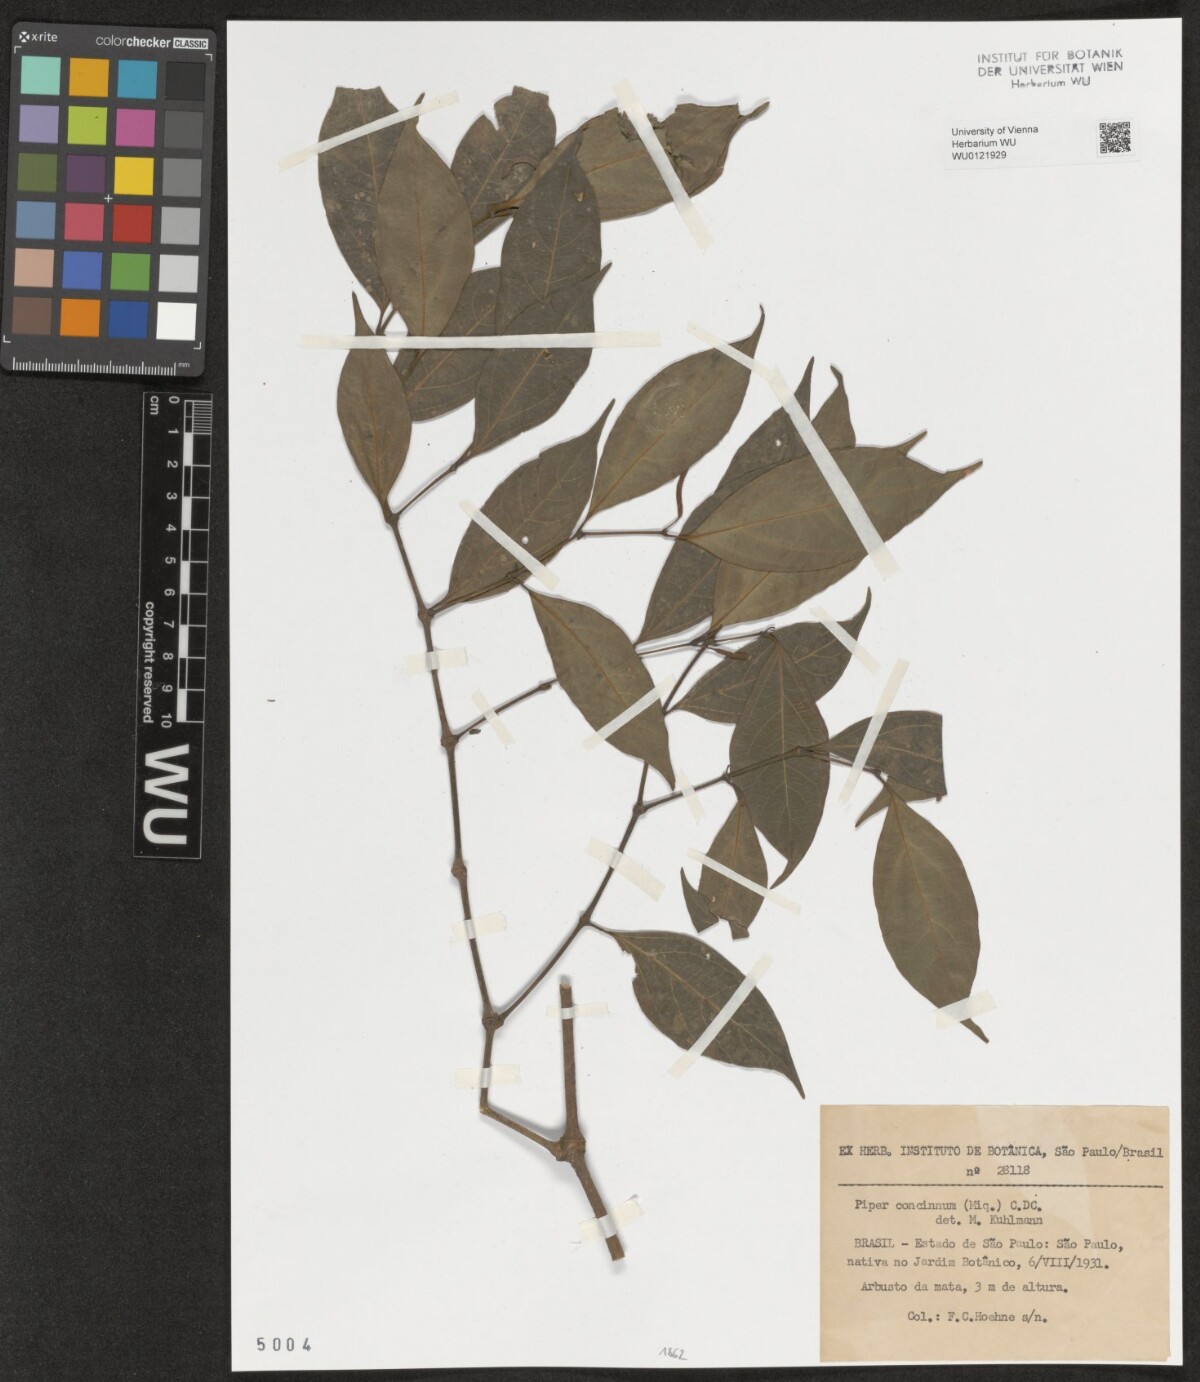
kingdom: Plantae
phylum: Tracheophyta
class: Magnoliopsida
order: Piperales
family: Piperaceae
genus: Peperomia
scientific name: Peperomia pellucida
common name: Man to man
